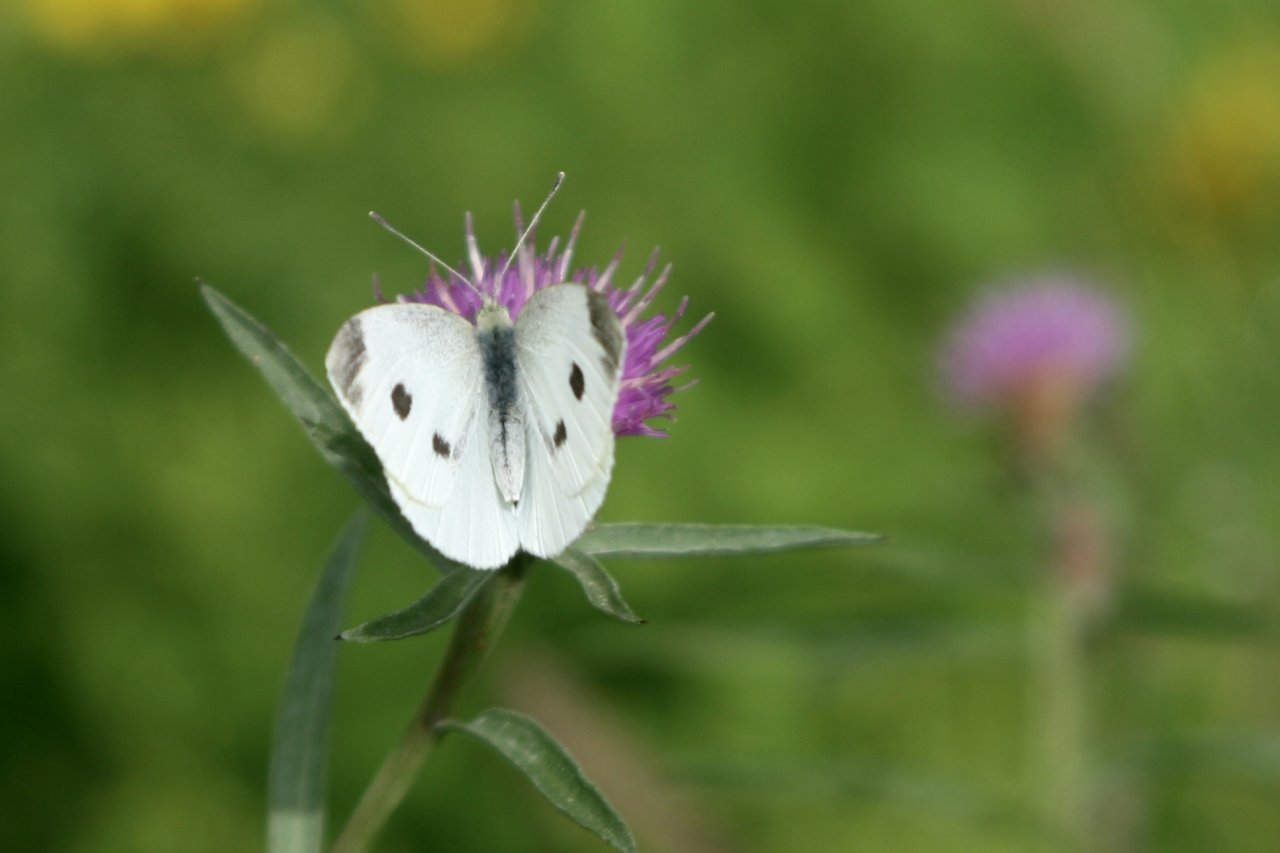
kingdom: Animalia
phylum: Arthropoda
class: Insecta
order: Lepidoptera
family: Pieridae
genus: Pieris
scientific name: Pieris rapae
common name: Cabbage White
